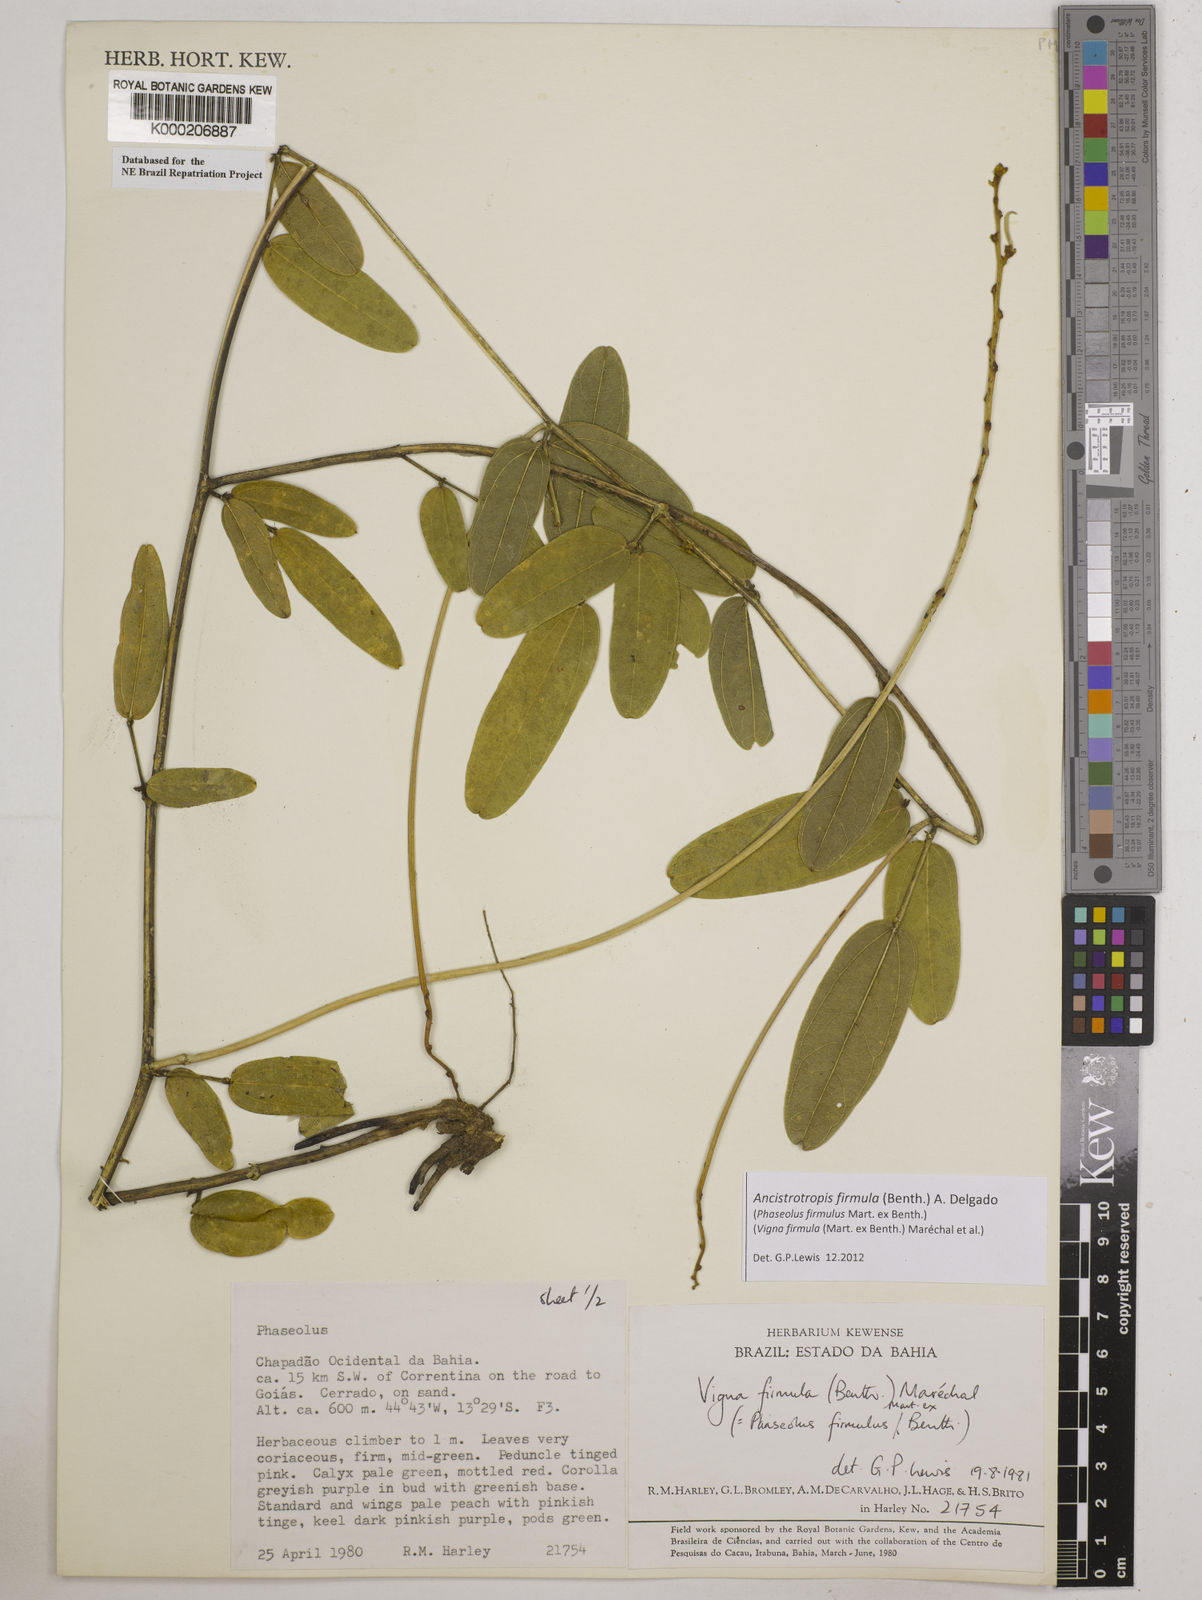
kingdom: Plantae
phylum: Tracheophyta
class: Magnoliopsida
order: Fabales
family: Fabaceae
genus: Vigna
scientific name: Vigna
